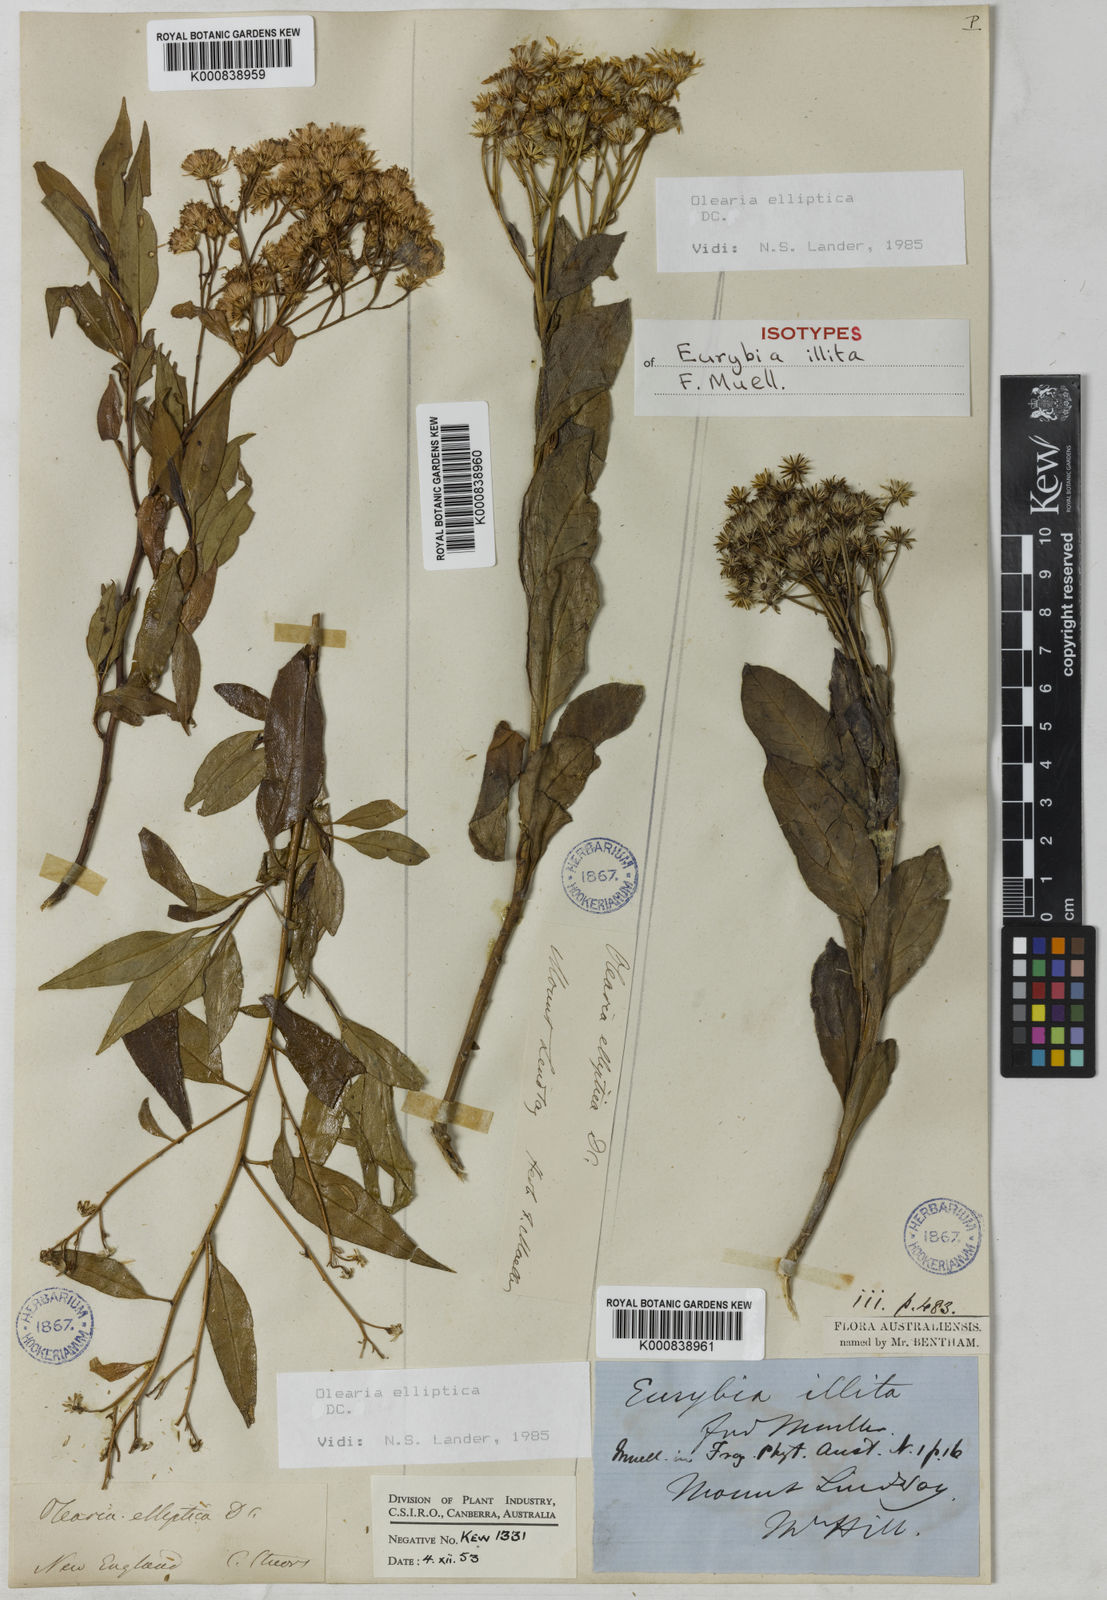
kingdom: Plantae
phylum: Tracheophyta
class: Magnoliopsida
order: Asterales
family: Asteraceae
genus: Phaseolaster
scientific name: Phaseolaster elliptica
